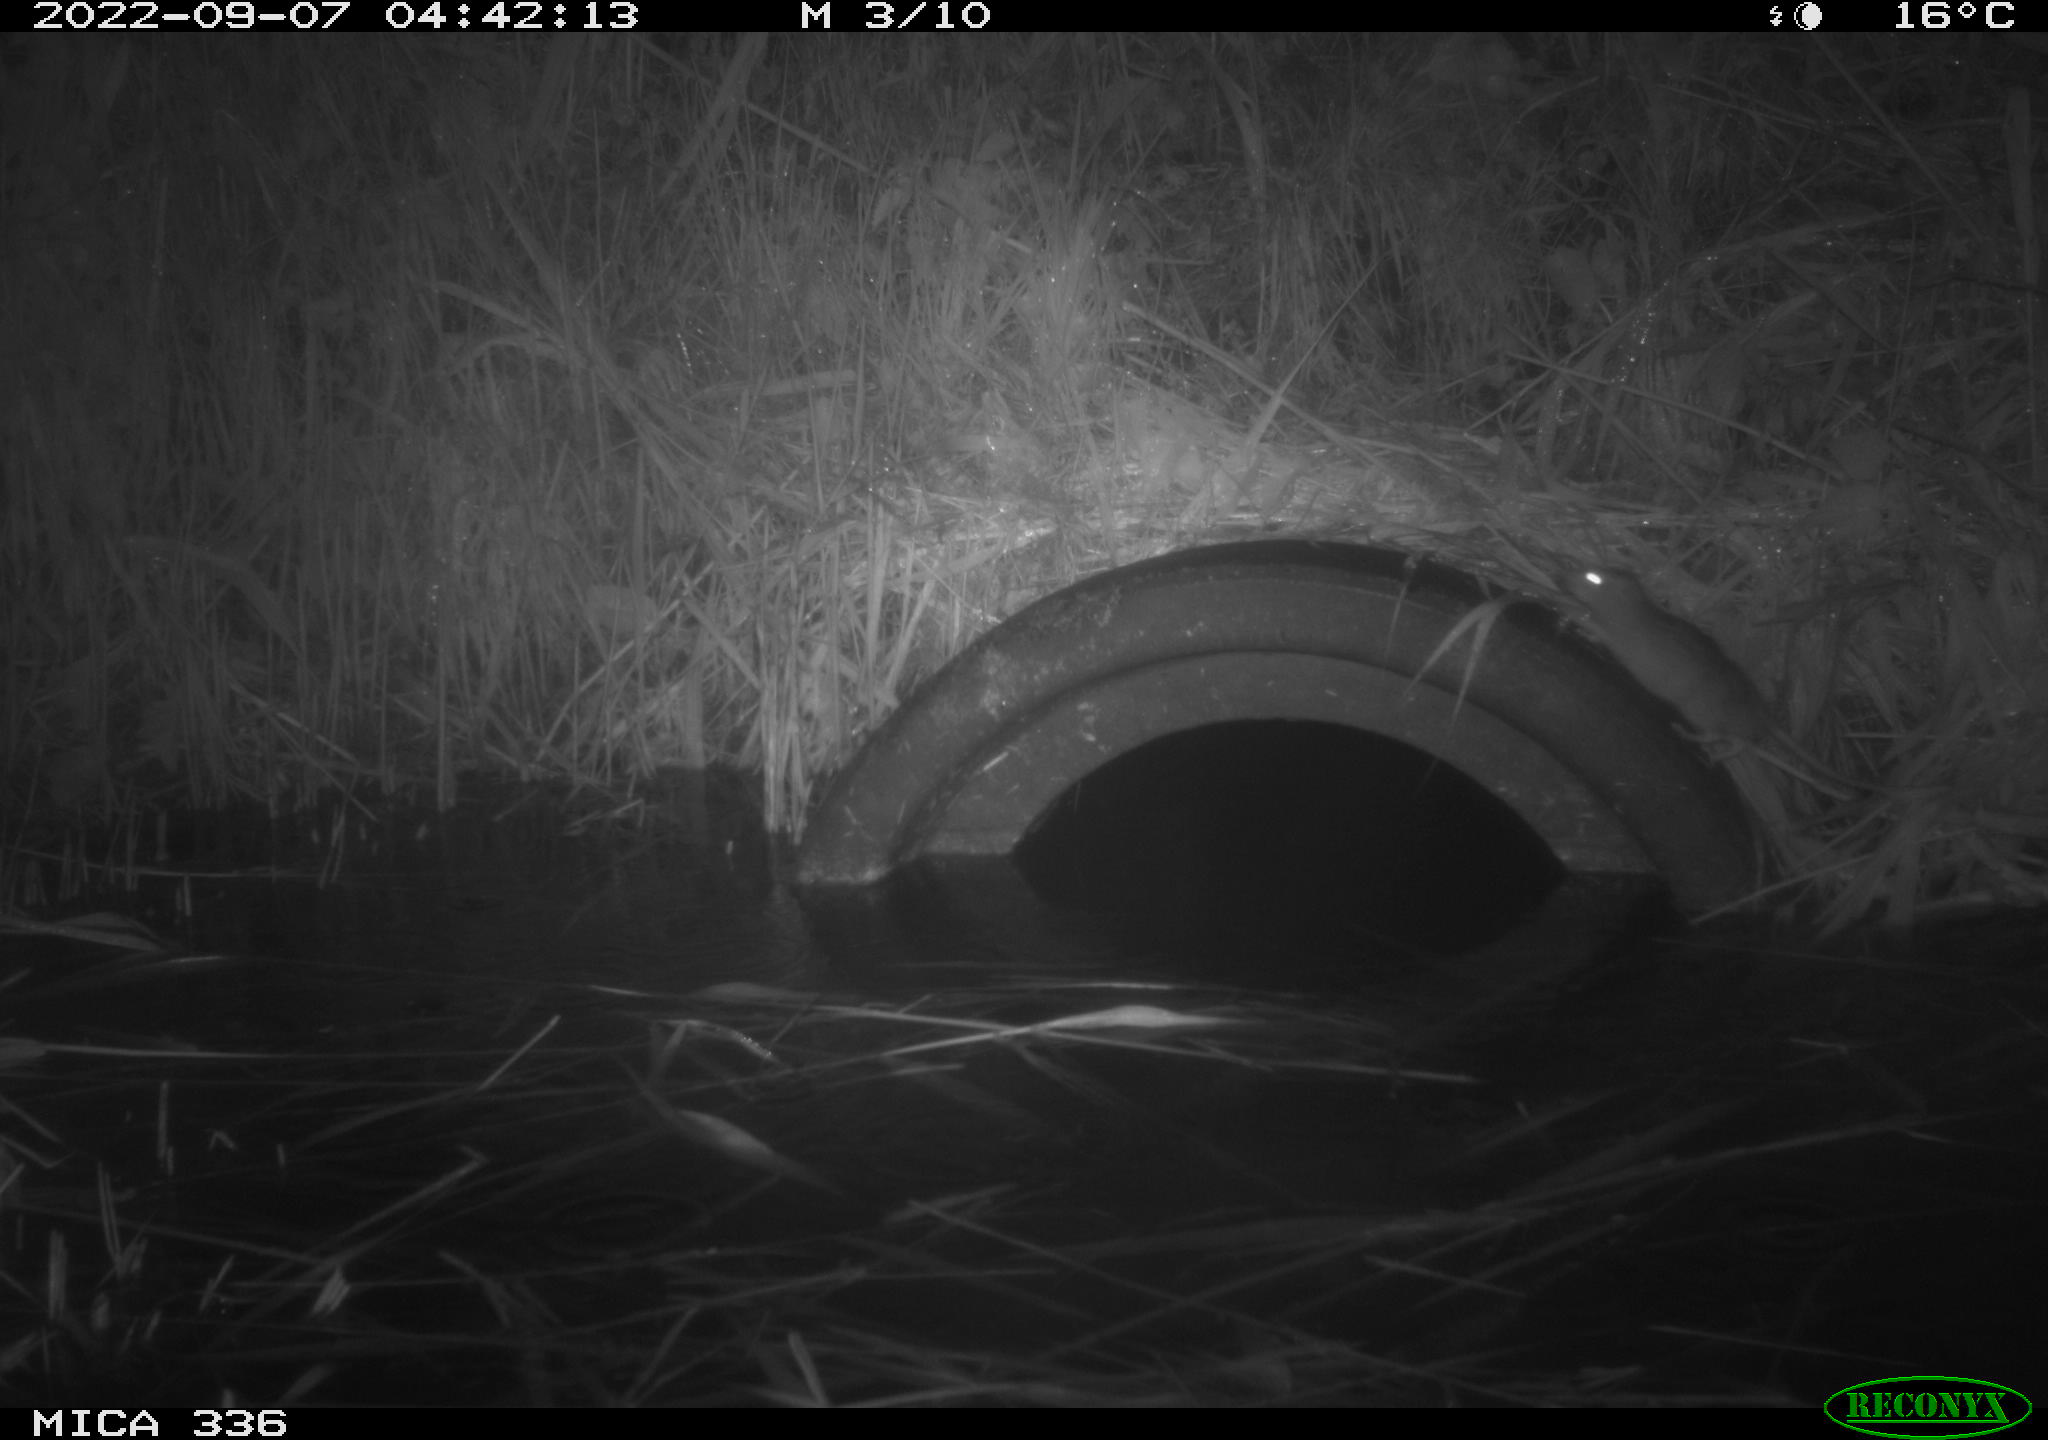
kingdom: Animalia
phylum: Chordata
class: Mammalia
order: Rodentia
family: Muridae
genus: Rattus
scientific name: Rattus norvegicus
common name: Brown rat
